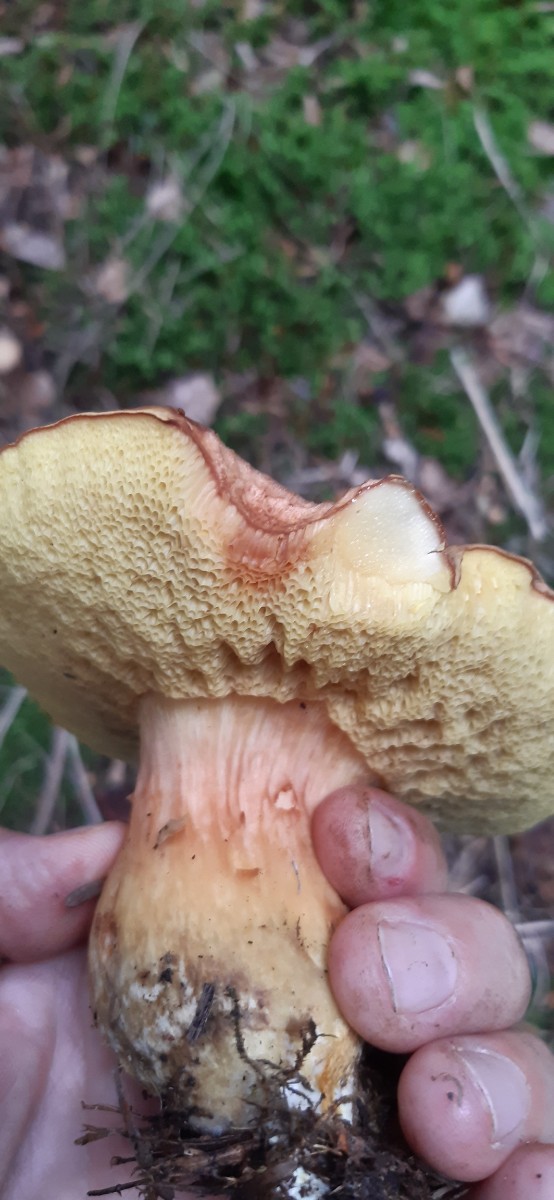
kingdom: Fungi
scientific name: Fungi
